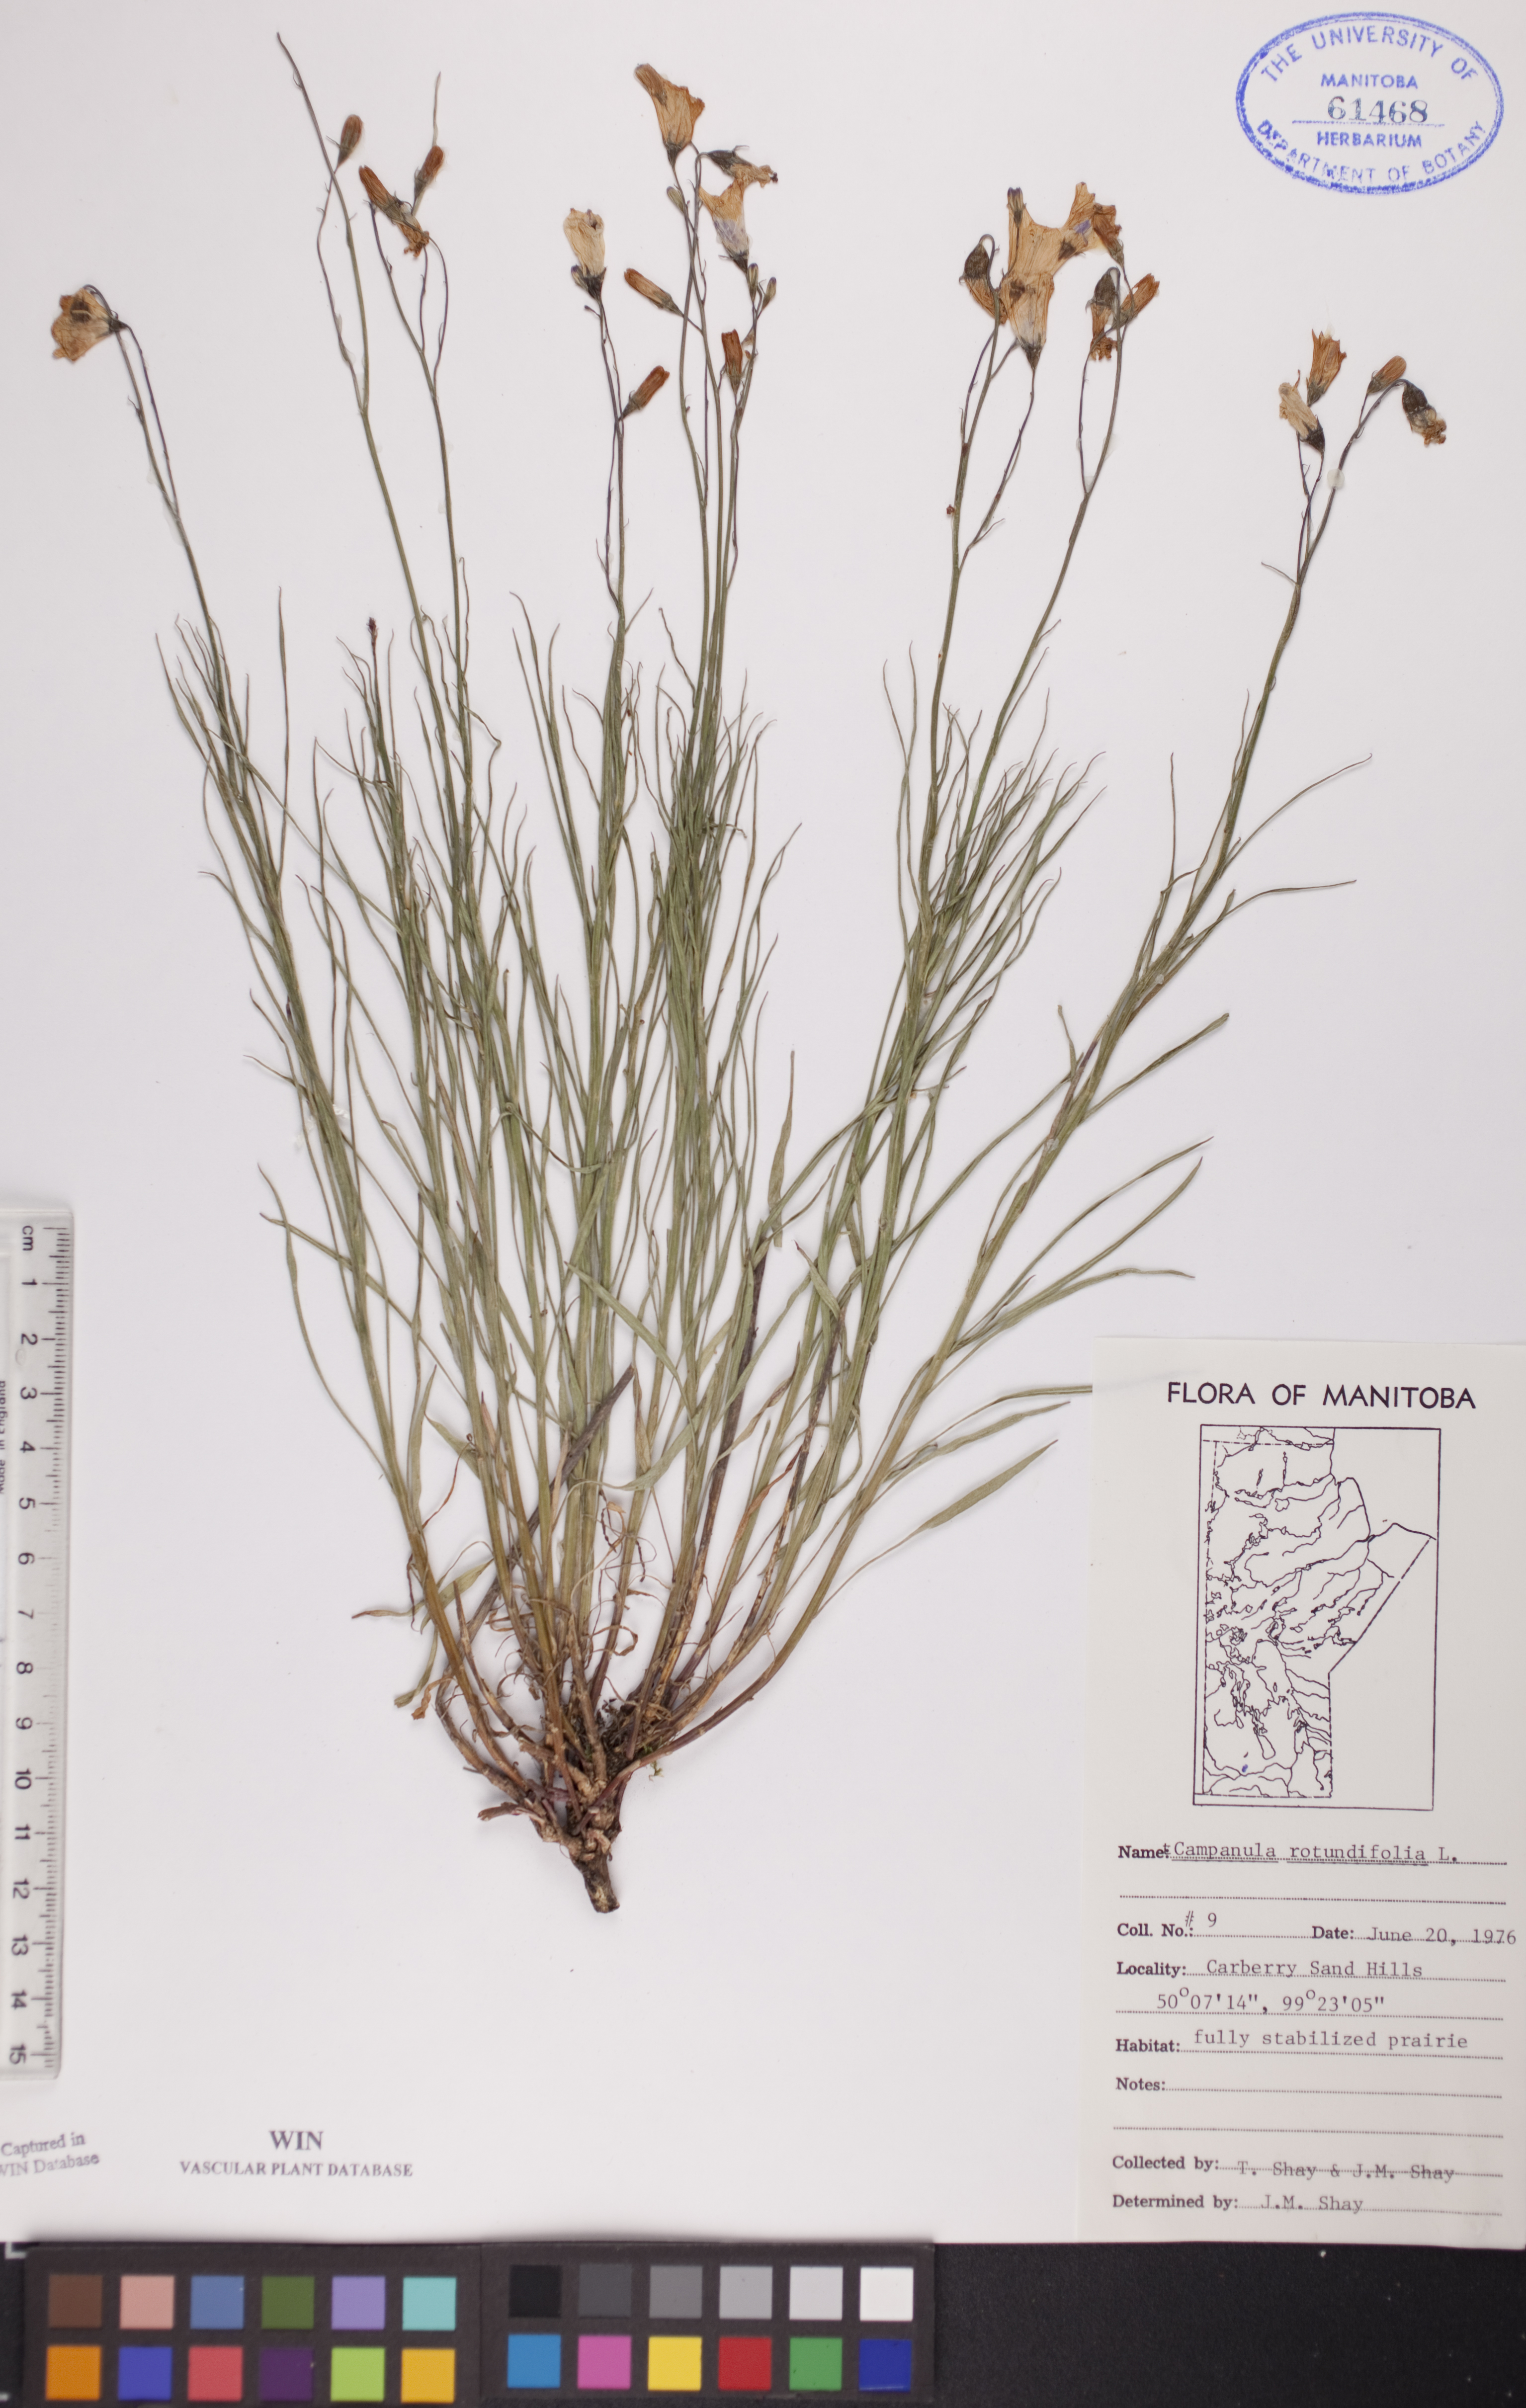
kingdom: Plantae
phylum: Tracheophyta
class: Magnoliopsida
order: Asterales
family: Campanulaceae
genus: Campanula
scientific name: Campanula rotundifolia
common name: Harebell
